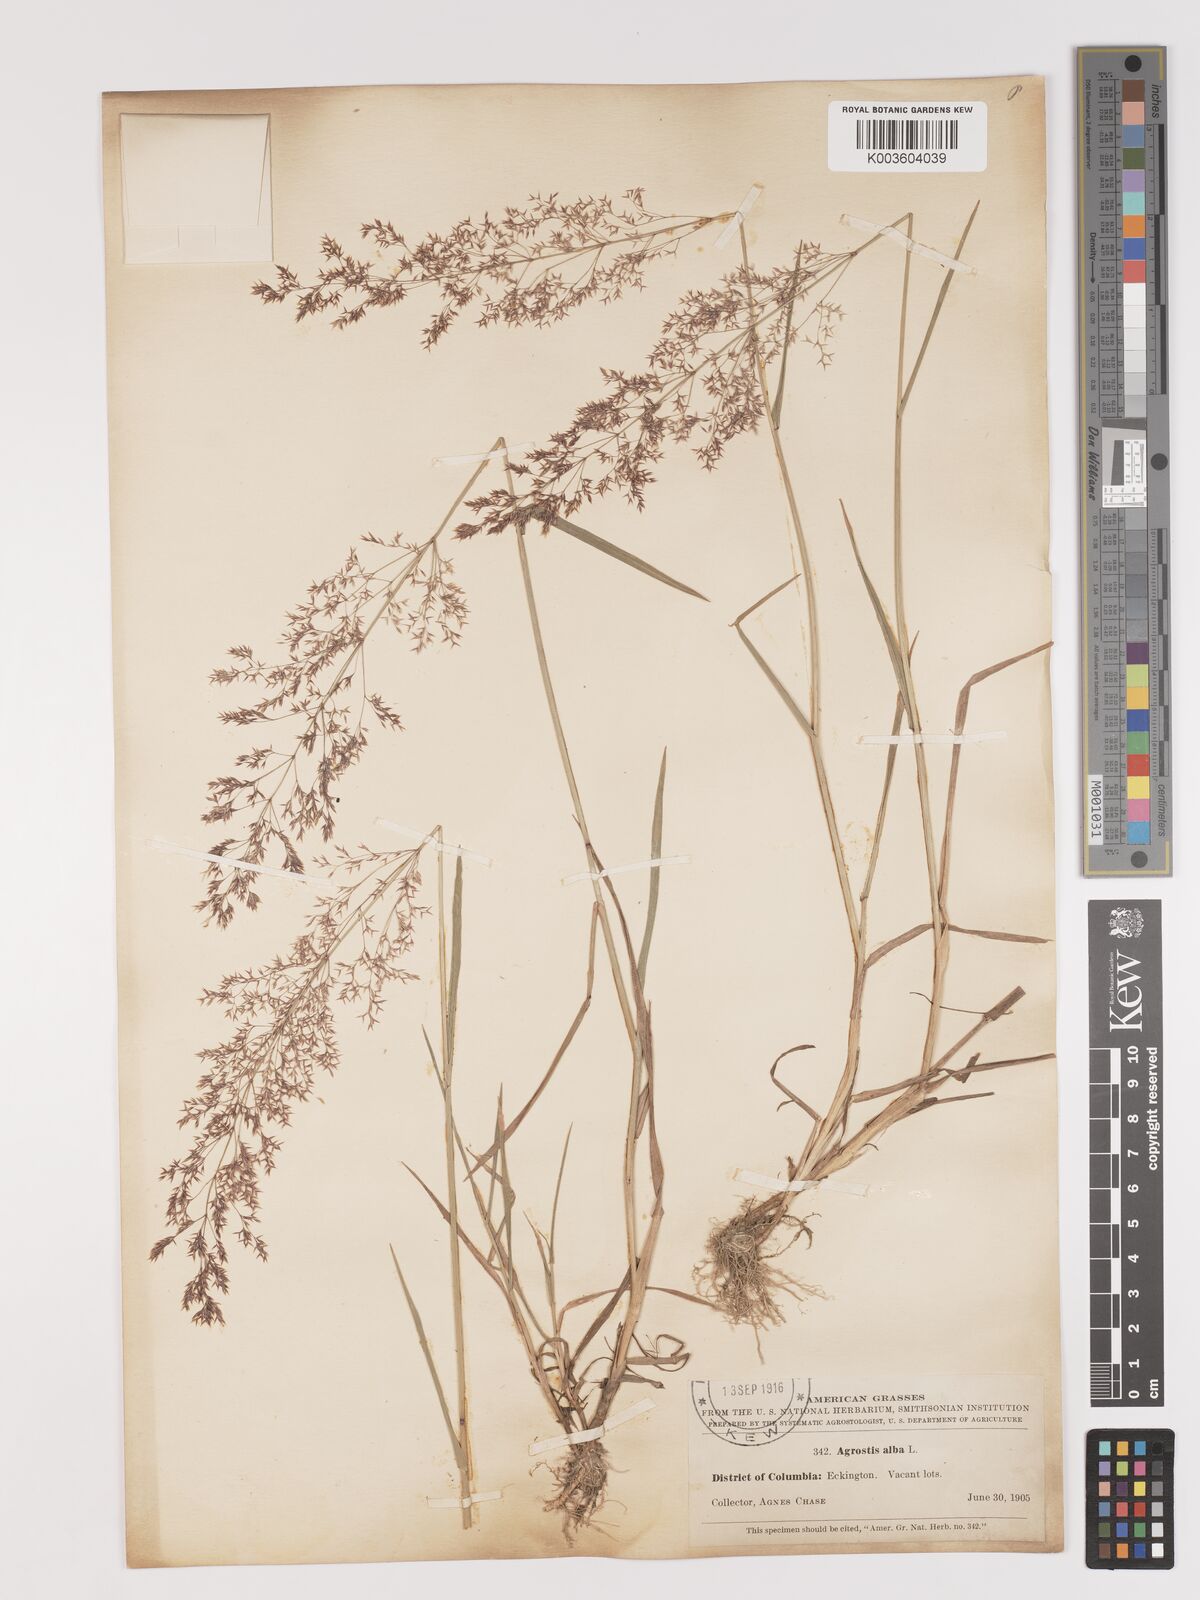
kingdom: Plantae
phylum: Tracheophyta
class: Liliopsida
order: Poales
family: Poaceae
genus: Agrostis
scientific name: Agrostis gigantea
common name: Black bent
